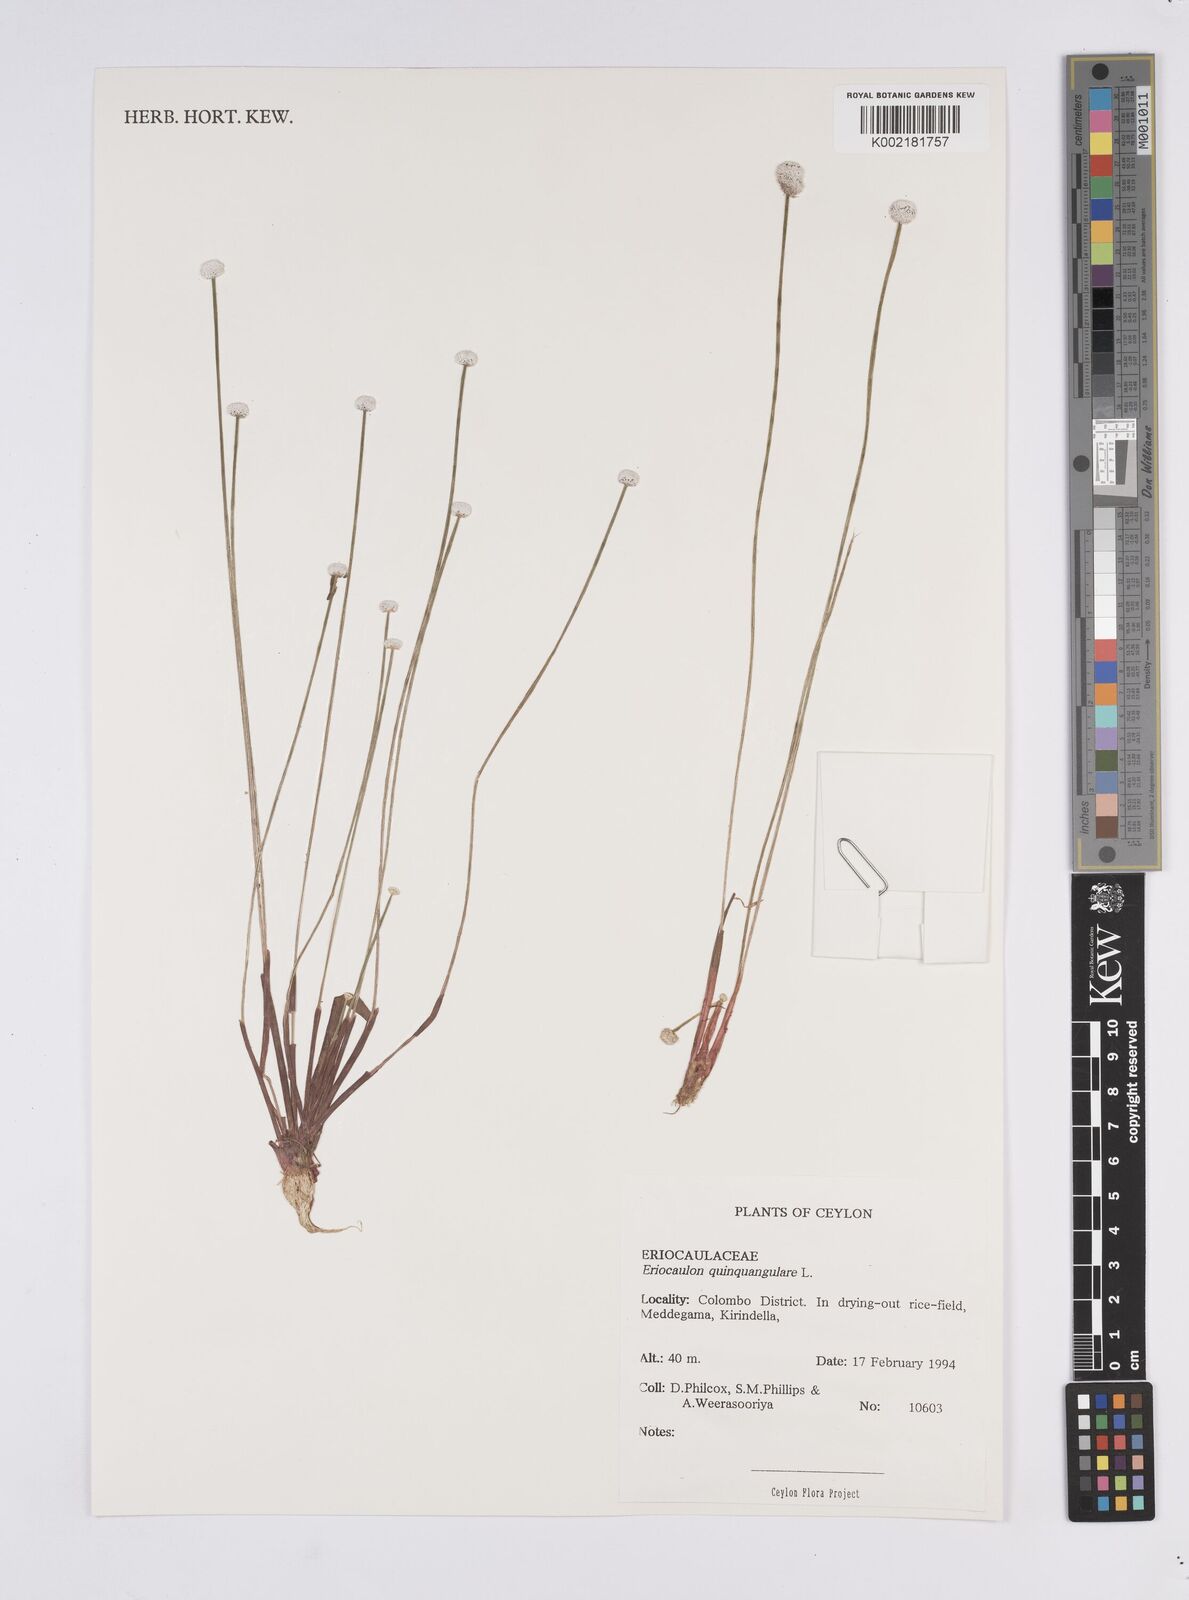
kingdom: Plantae
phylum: Tracheophyta
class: Liliopsida
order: Poales
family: Eriocaulaceae
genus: Eriocaulon
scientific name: Eriocaulon quinquangulare
